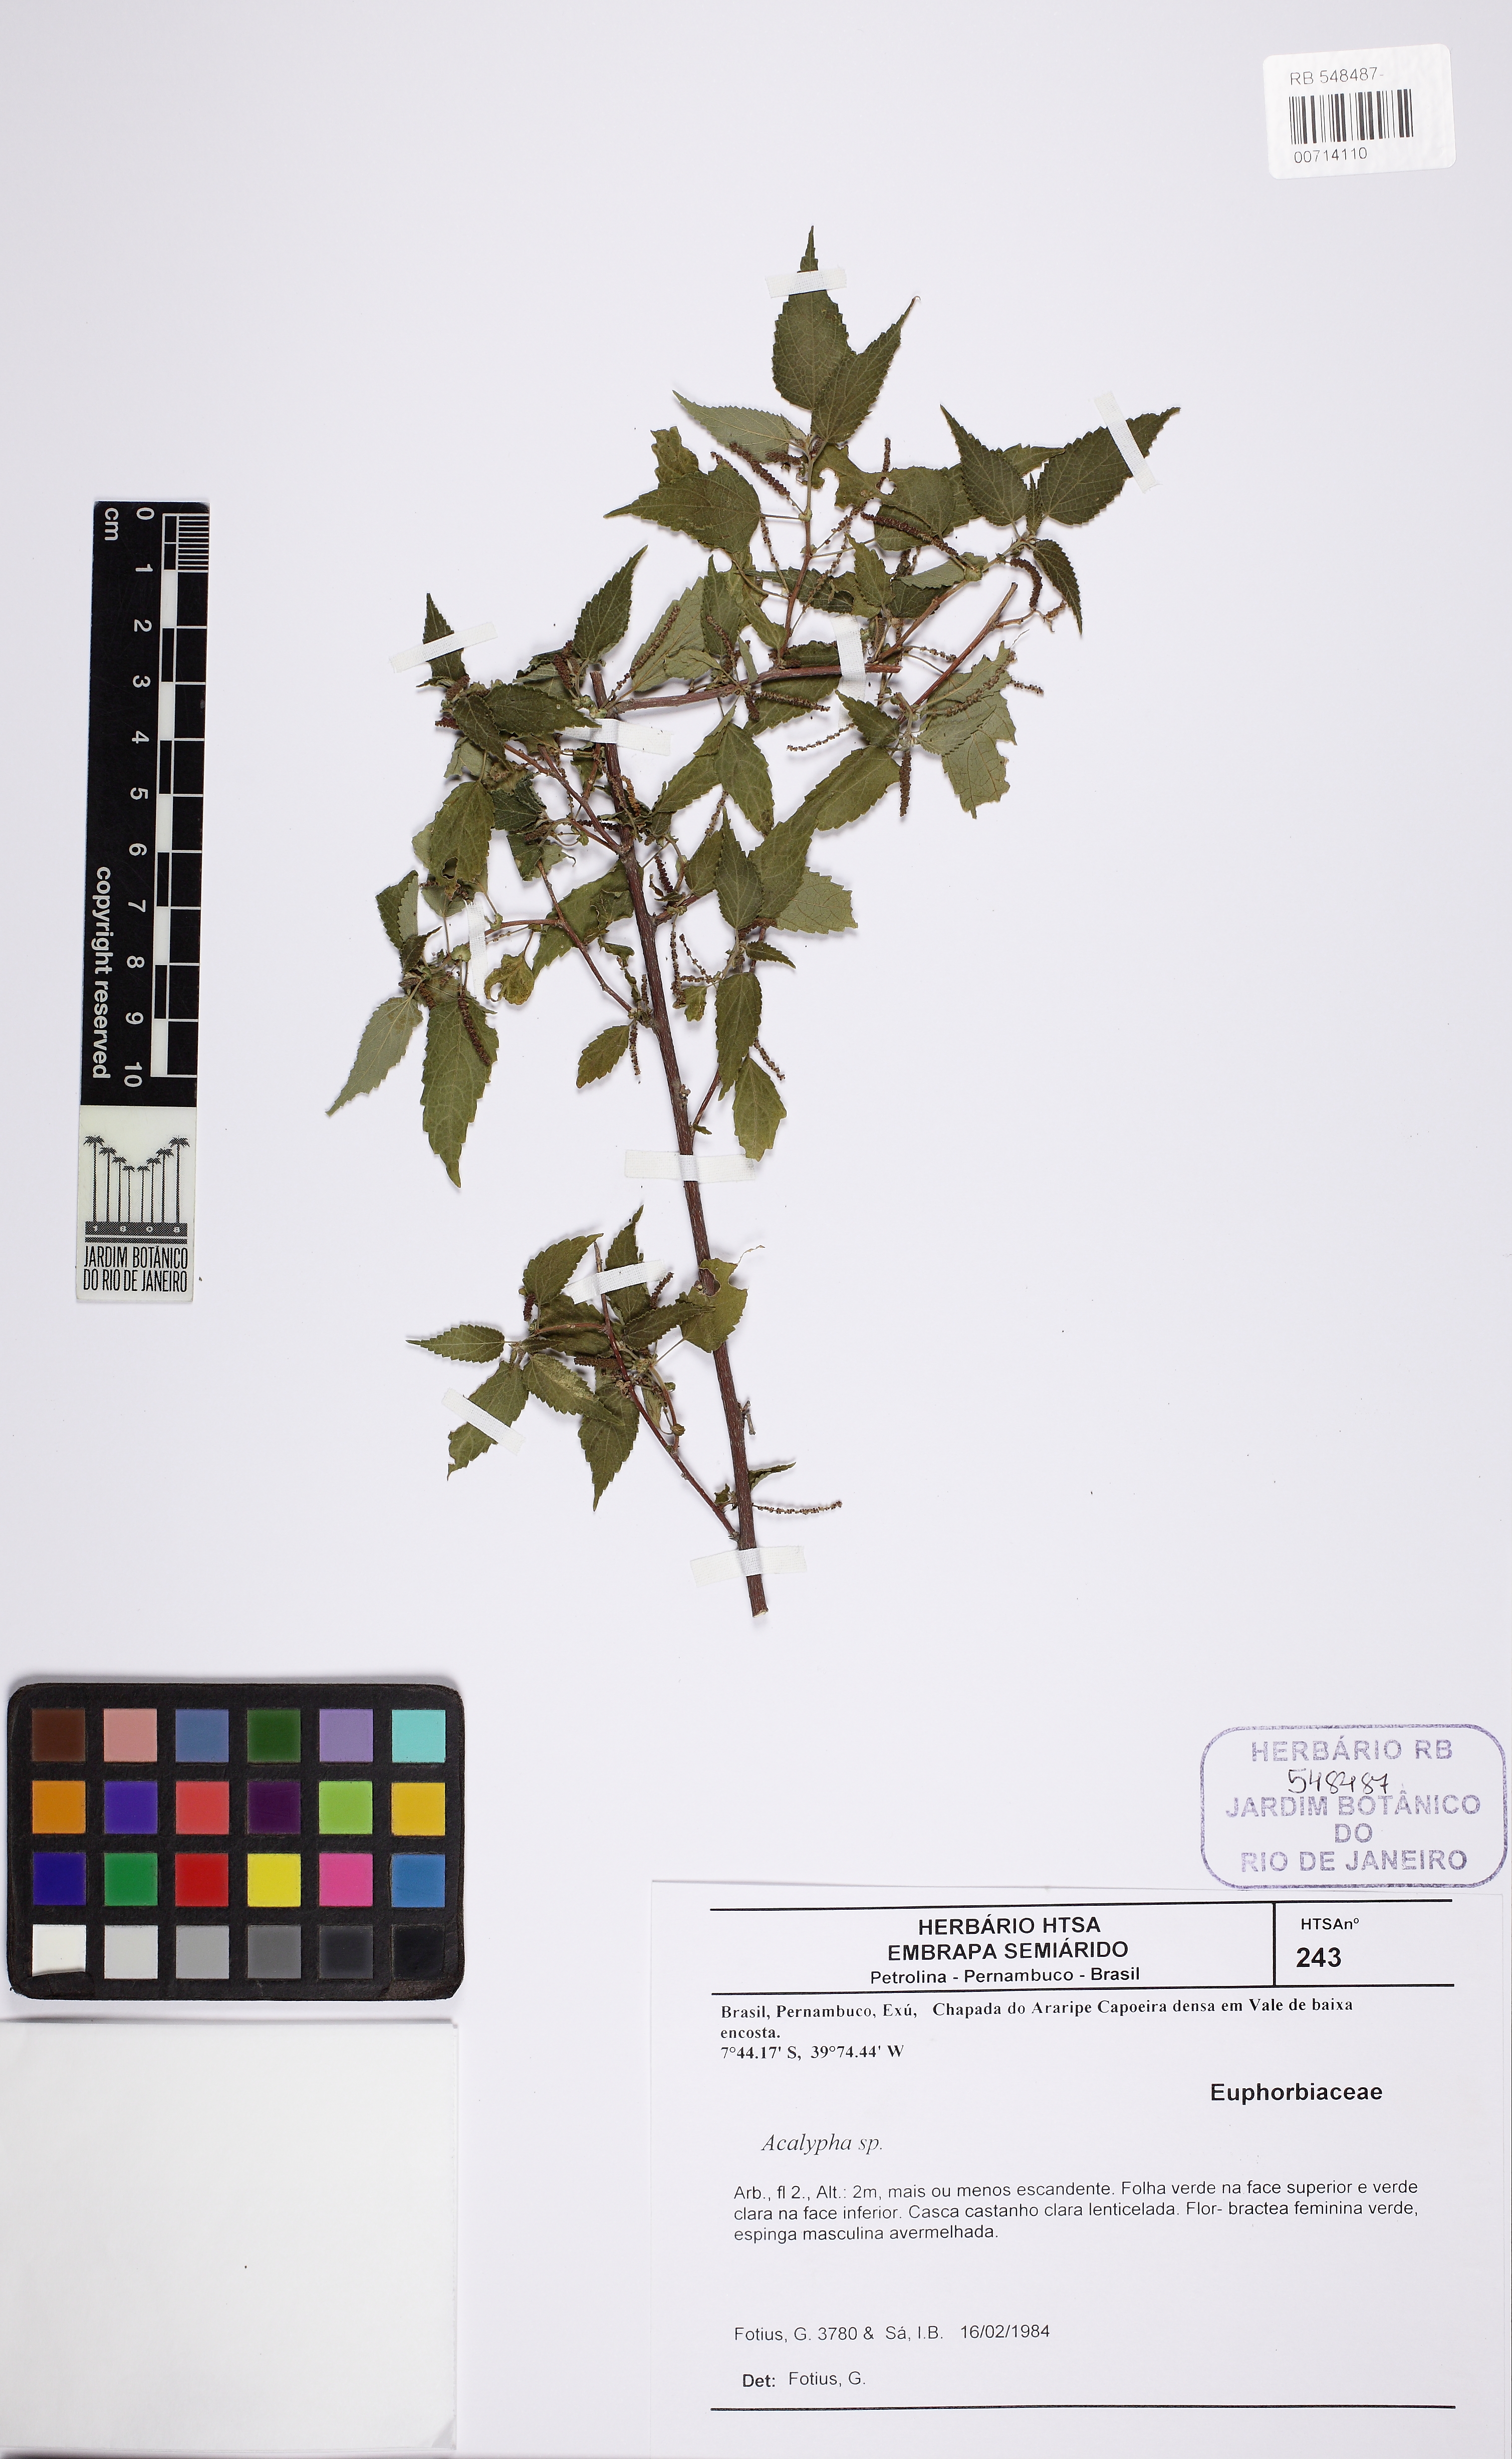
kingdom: Plantae
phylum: Tracheophyta
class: Magnoliopsida
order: Malpighiales
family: Euphorbiaceae
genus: Acalypha
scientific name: Acalypha multicaulis
